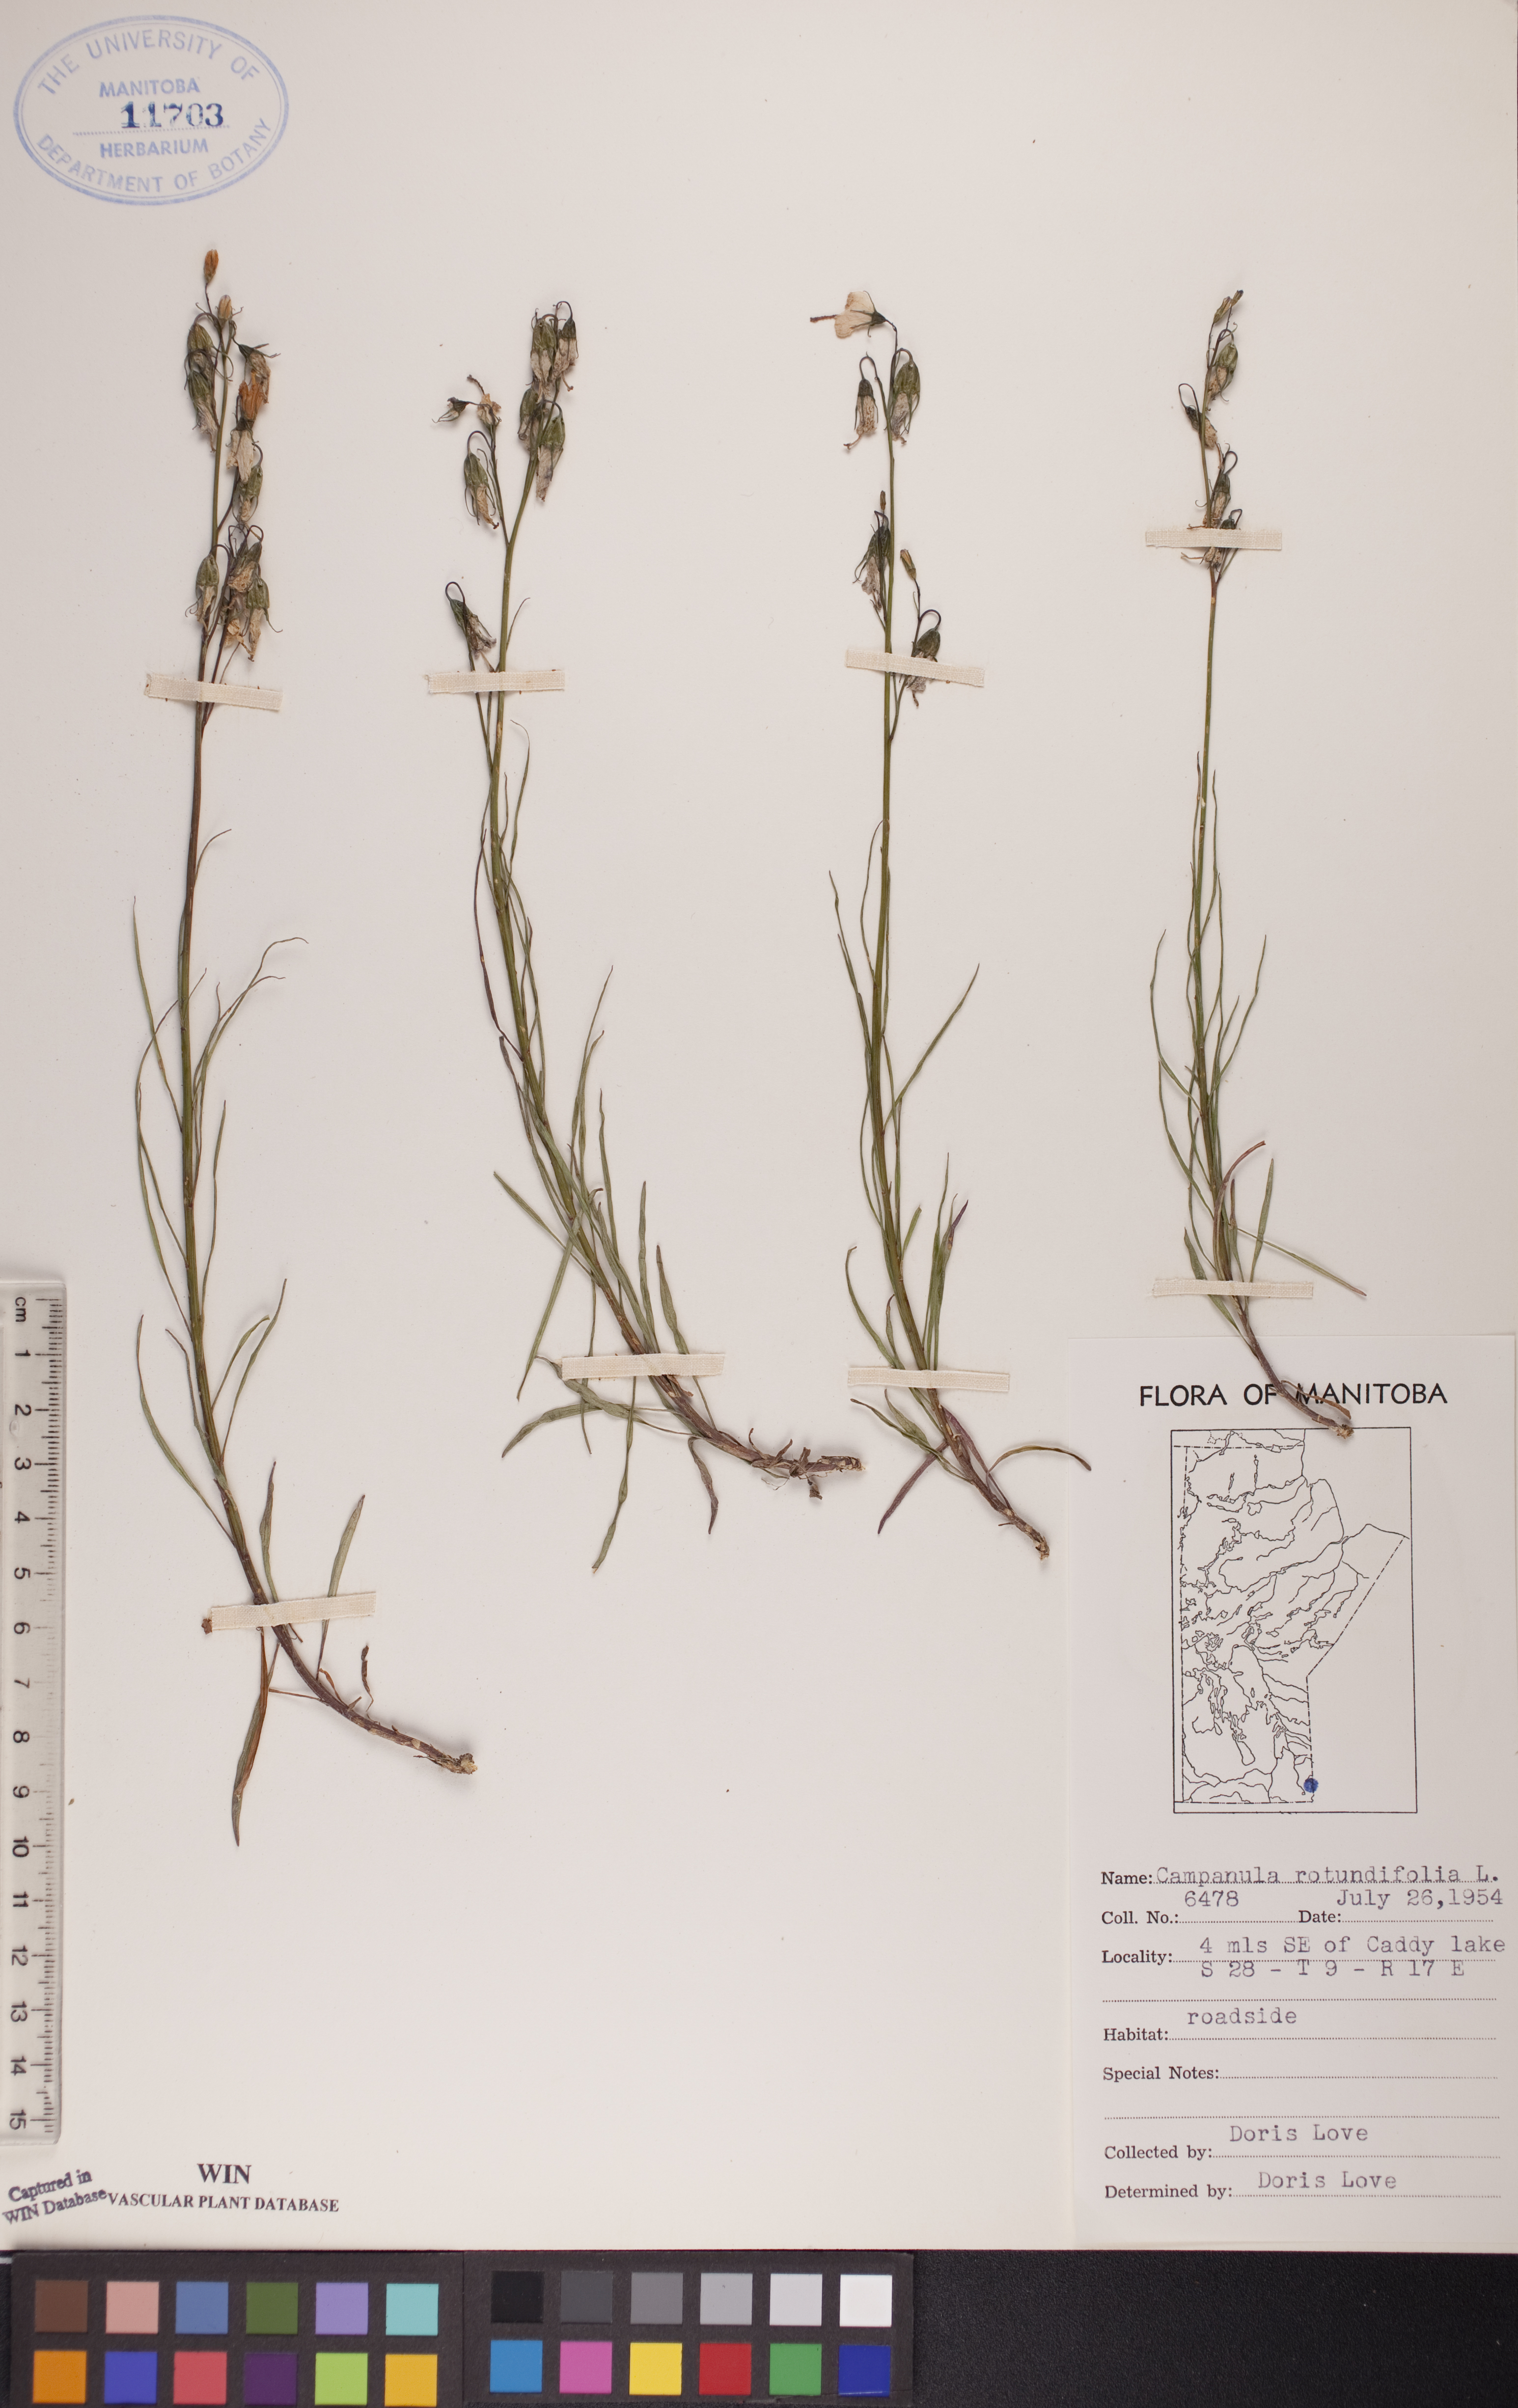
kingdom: Plantae
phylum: Tracheophyta
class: Magnoliopsida
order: Asterales
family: Campanulaceae
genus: Campanula
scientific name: Campanula rotundifolia
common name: Harebell
